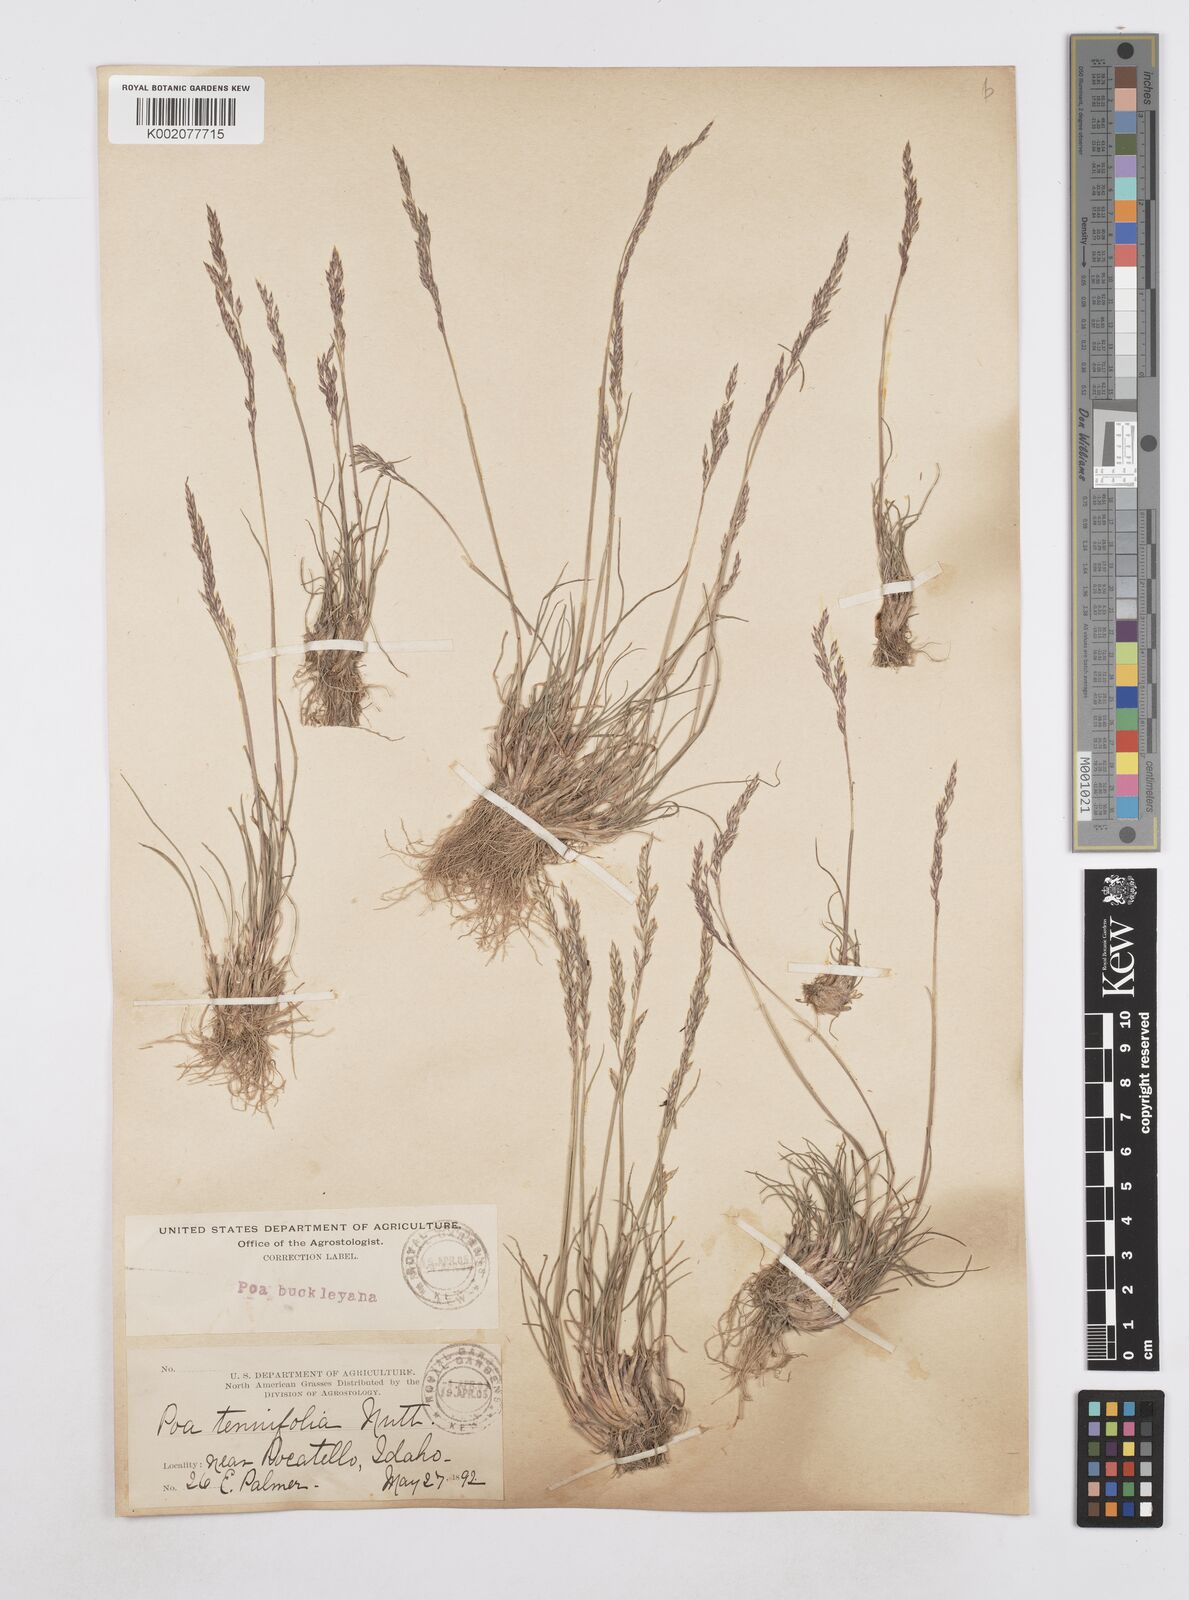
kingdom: Plantae
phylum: Tracheophyta
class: Liliopsida
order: Poales
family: Poaceae
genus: Poa
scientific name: Poa secunda
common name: Sandberg bluegrass
